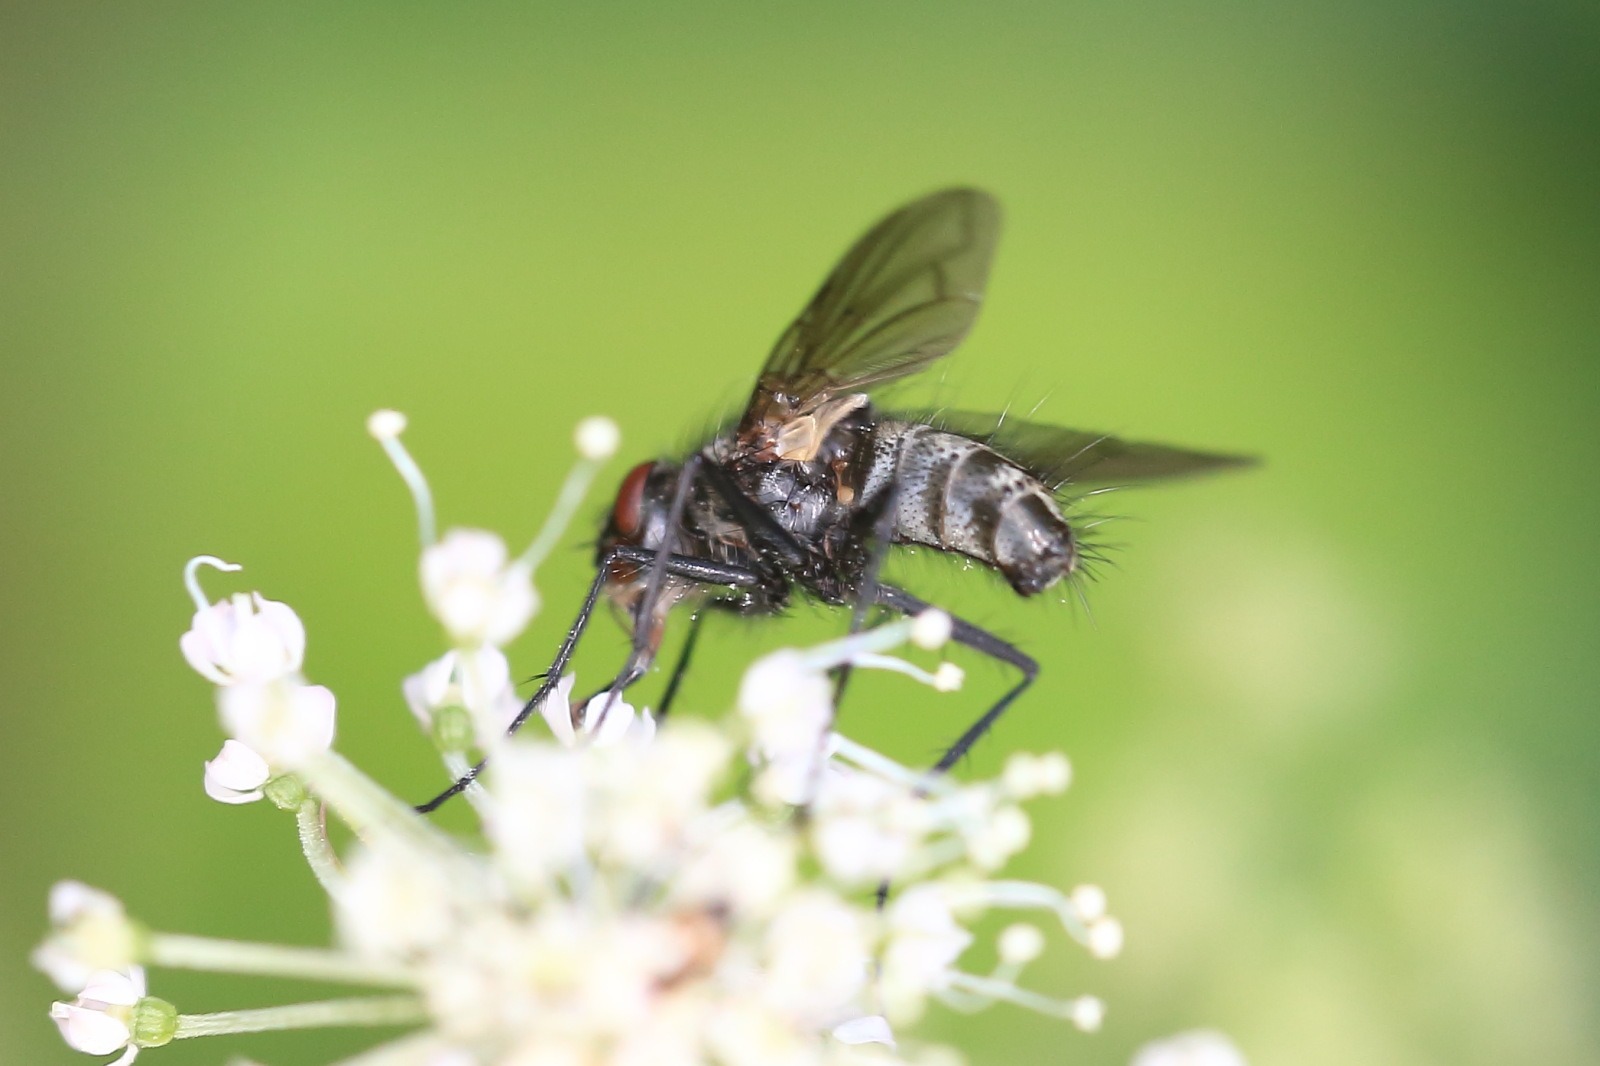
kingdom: Animalia
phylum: Arthropoda
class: Insecta
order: Diptera
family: Tachinidae
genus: Dinera
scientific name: Dinera carinifrons
